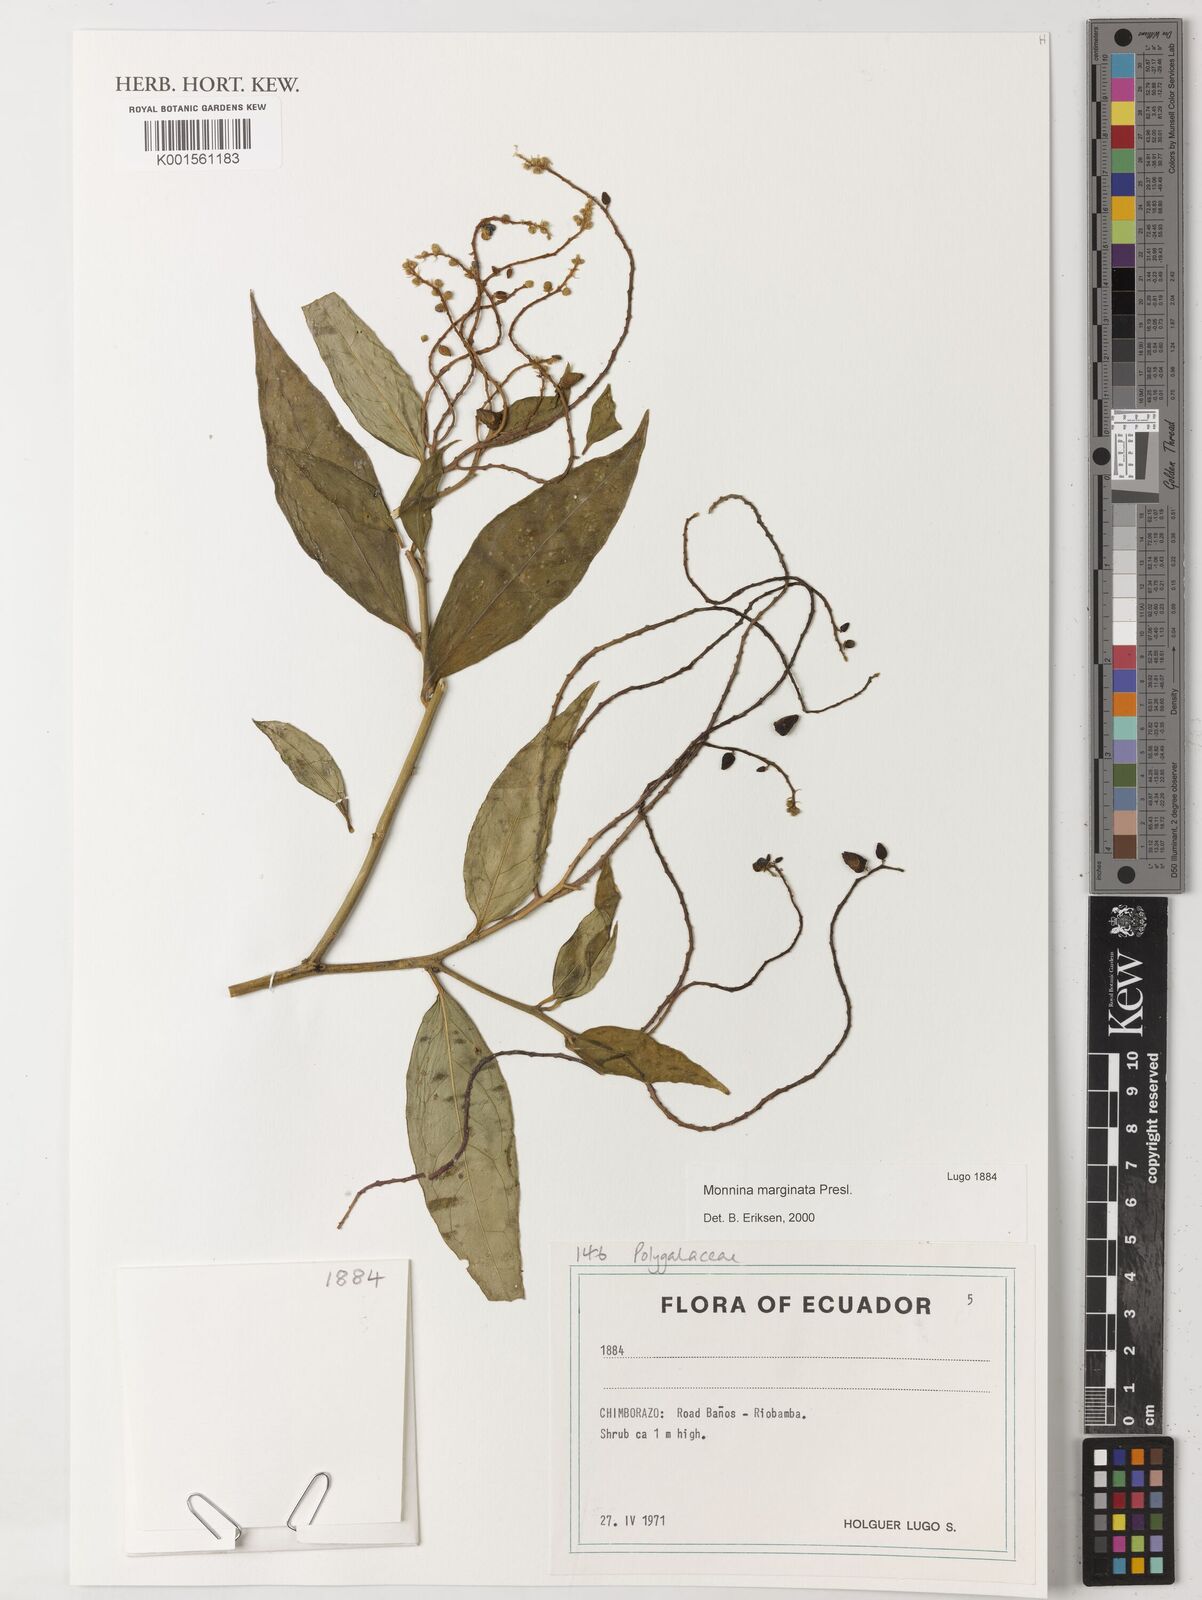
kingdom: Plantae
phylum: Tracheophyta
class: Magnoliopsida
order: Fabales
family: Polygalaceae
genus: Monnina
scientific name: Monnina marginata
